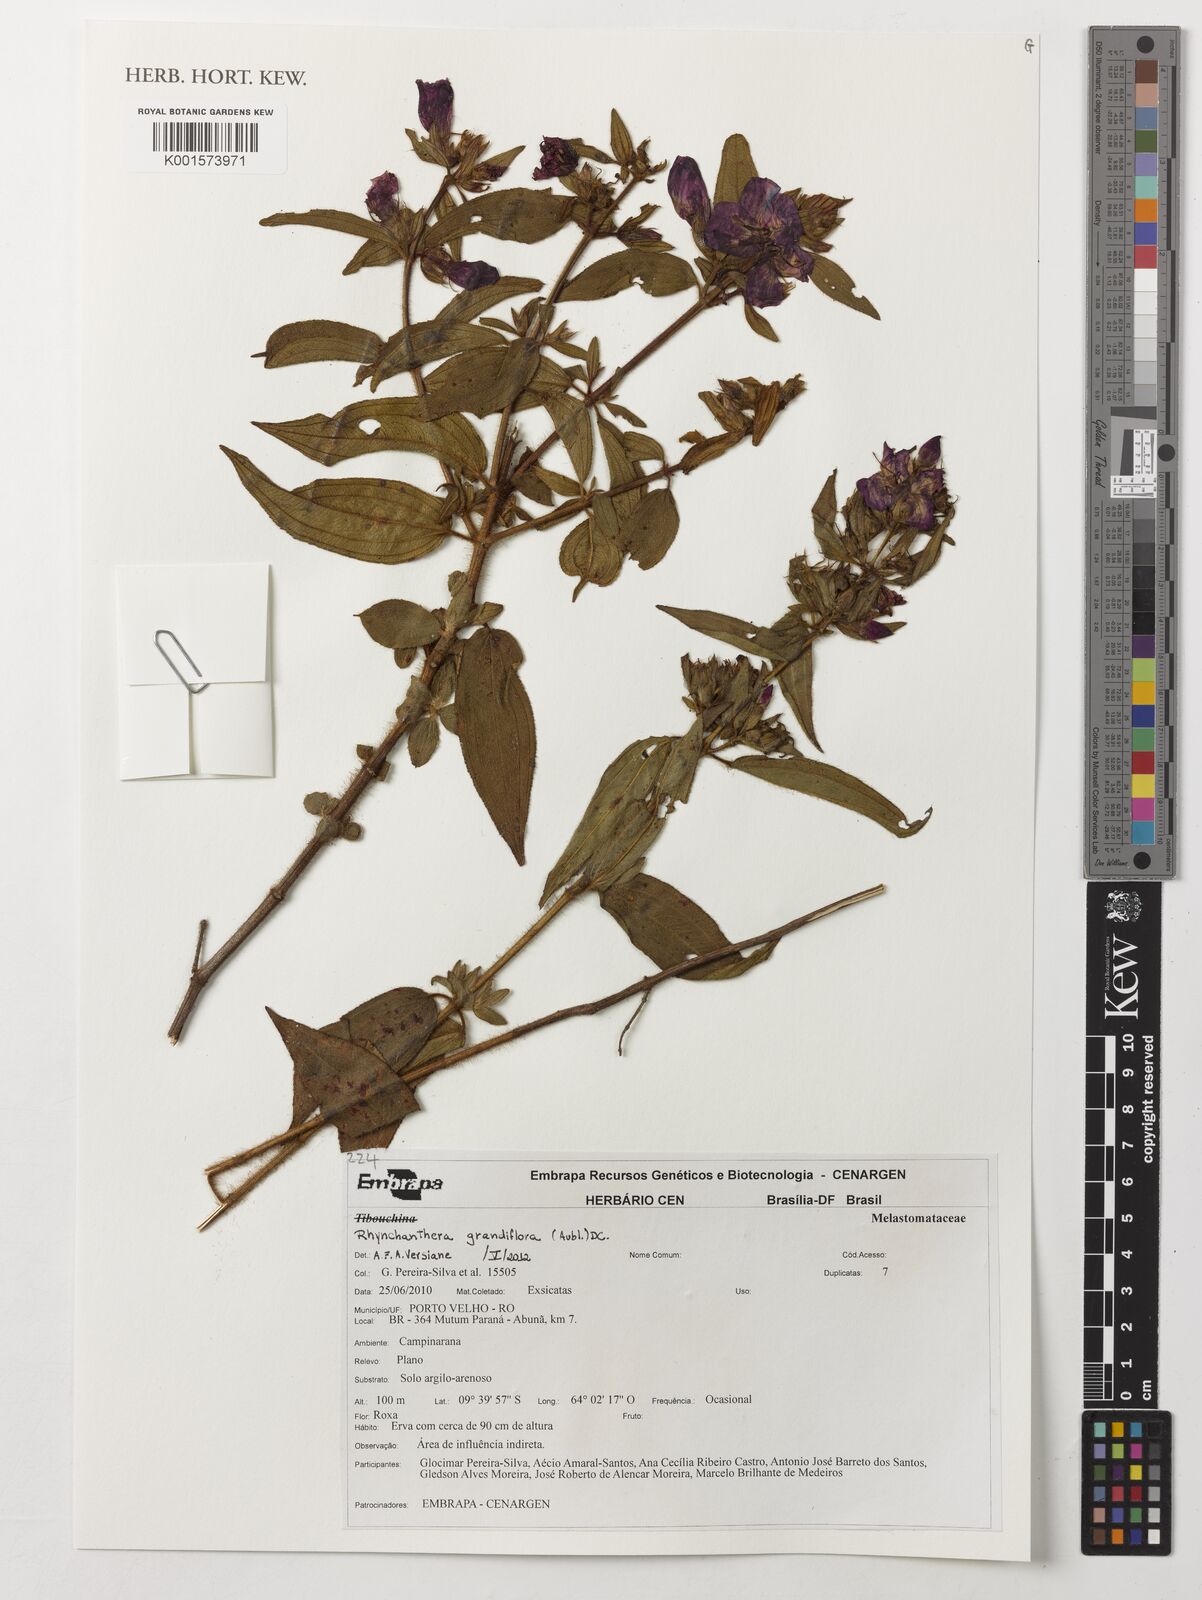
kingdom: Plantae
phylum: Tracheophyta
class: Magnoliopsida
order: Myrtales
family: Melastomataceae
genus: Rhynchanthera
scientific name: Rhynchanthera grandiflora
